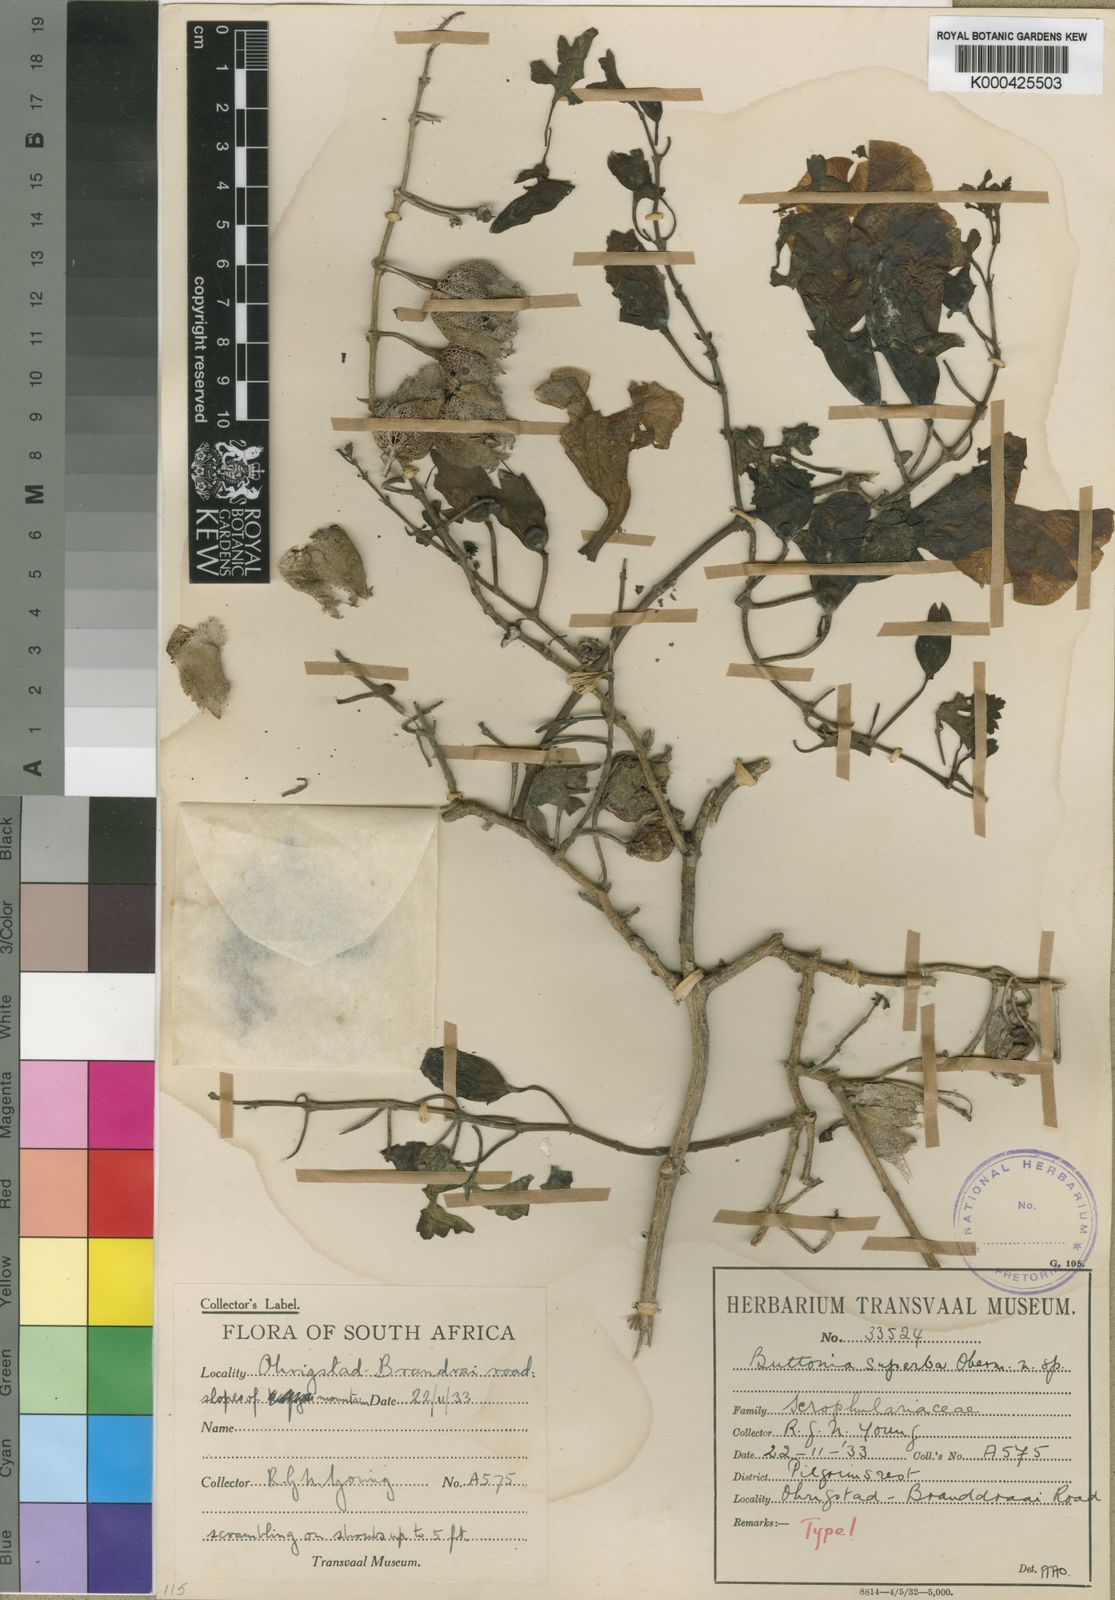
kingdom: Plantae
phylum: Tracheophyta
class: Magnoliopsida
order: Lamiales
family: Orobanchaceae
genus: Buttonia
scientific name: Buttonia superba
